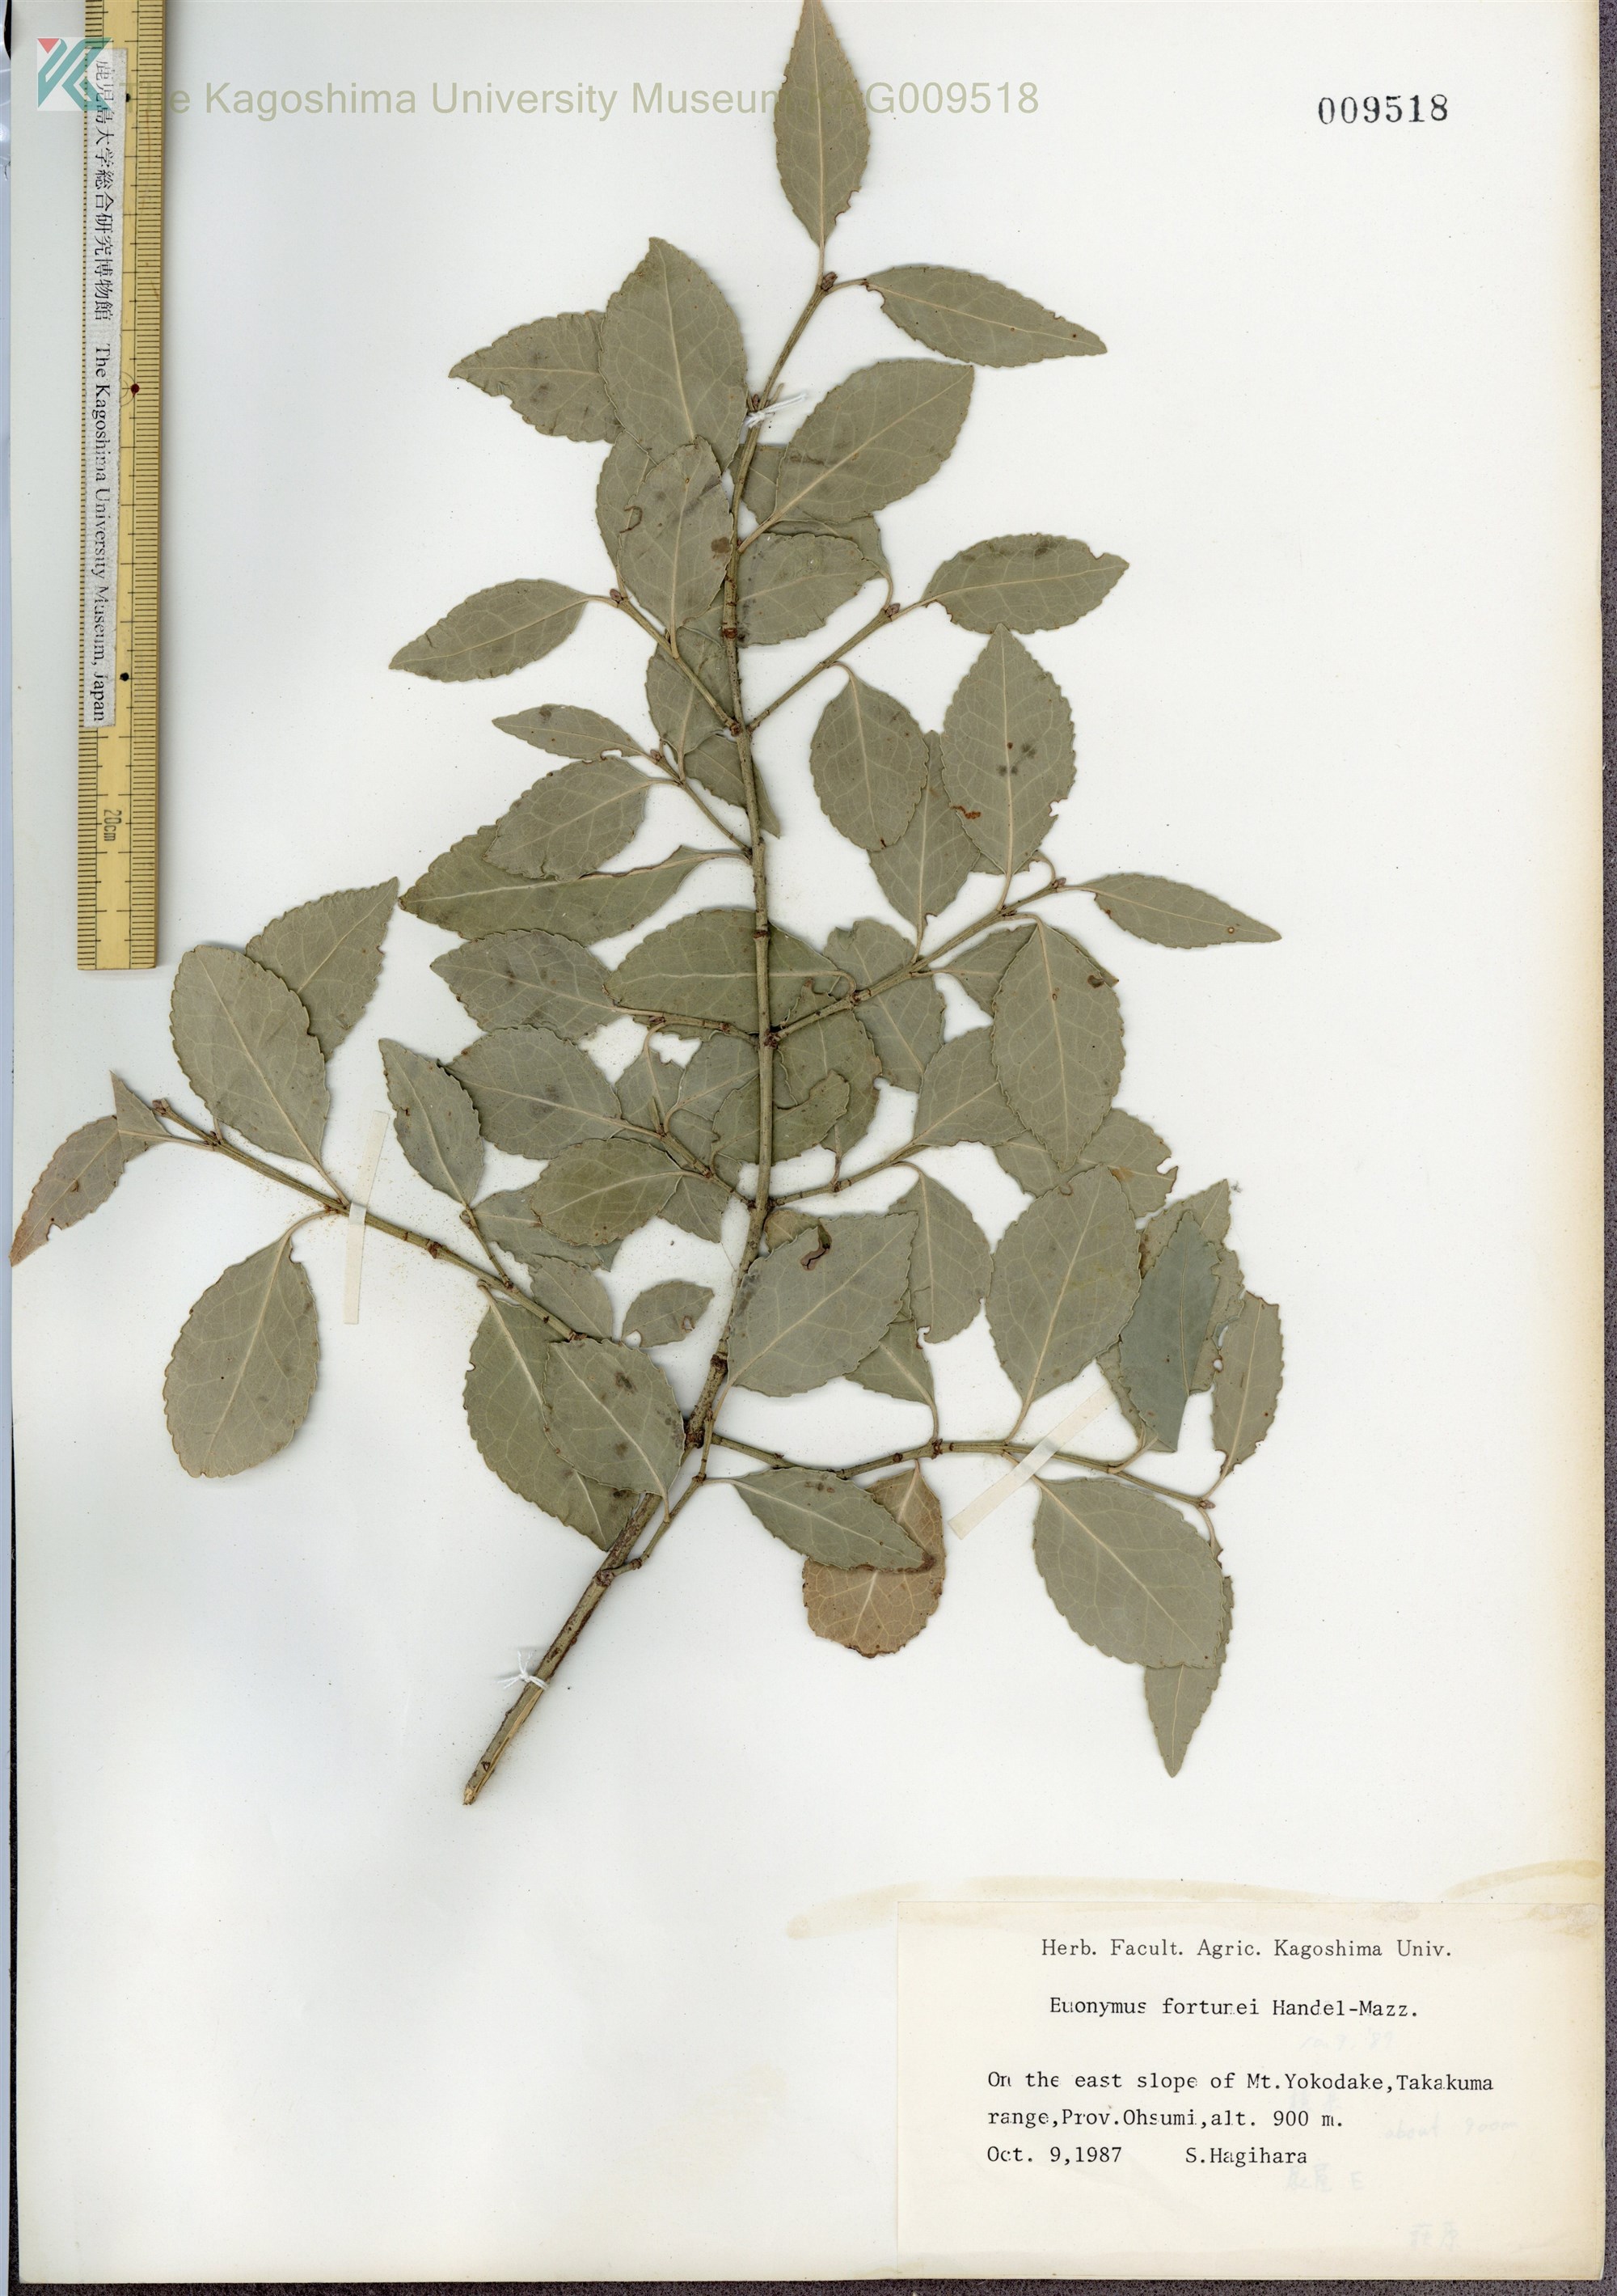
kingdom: Plantae
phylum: Tracheophyta
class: Magnoliopsida
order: Celastrales
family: Celastraceae
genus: Euonymus
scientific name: Euonymus fortunei
